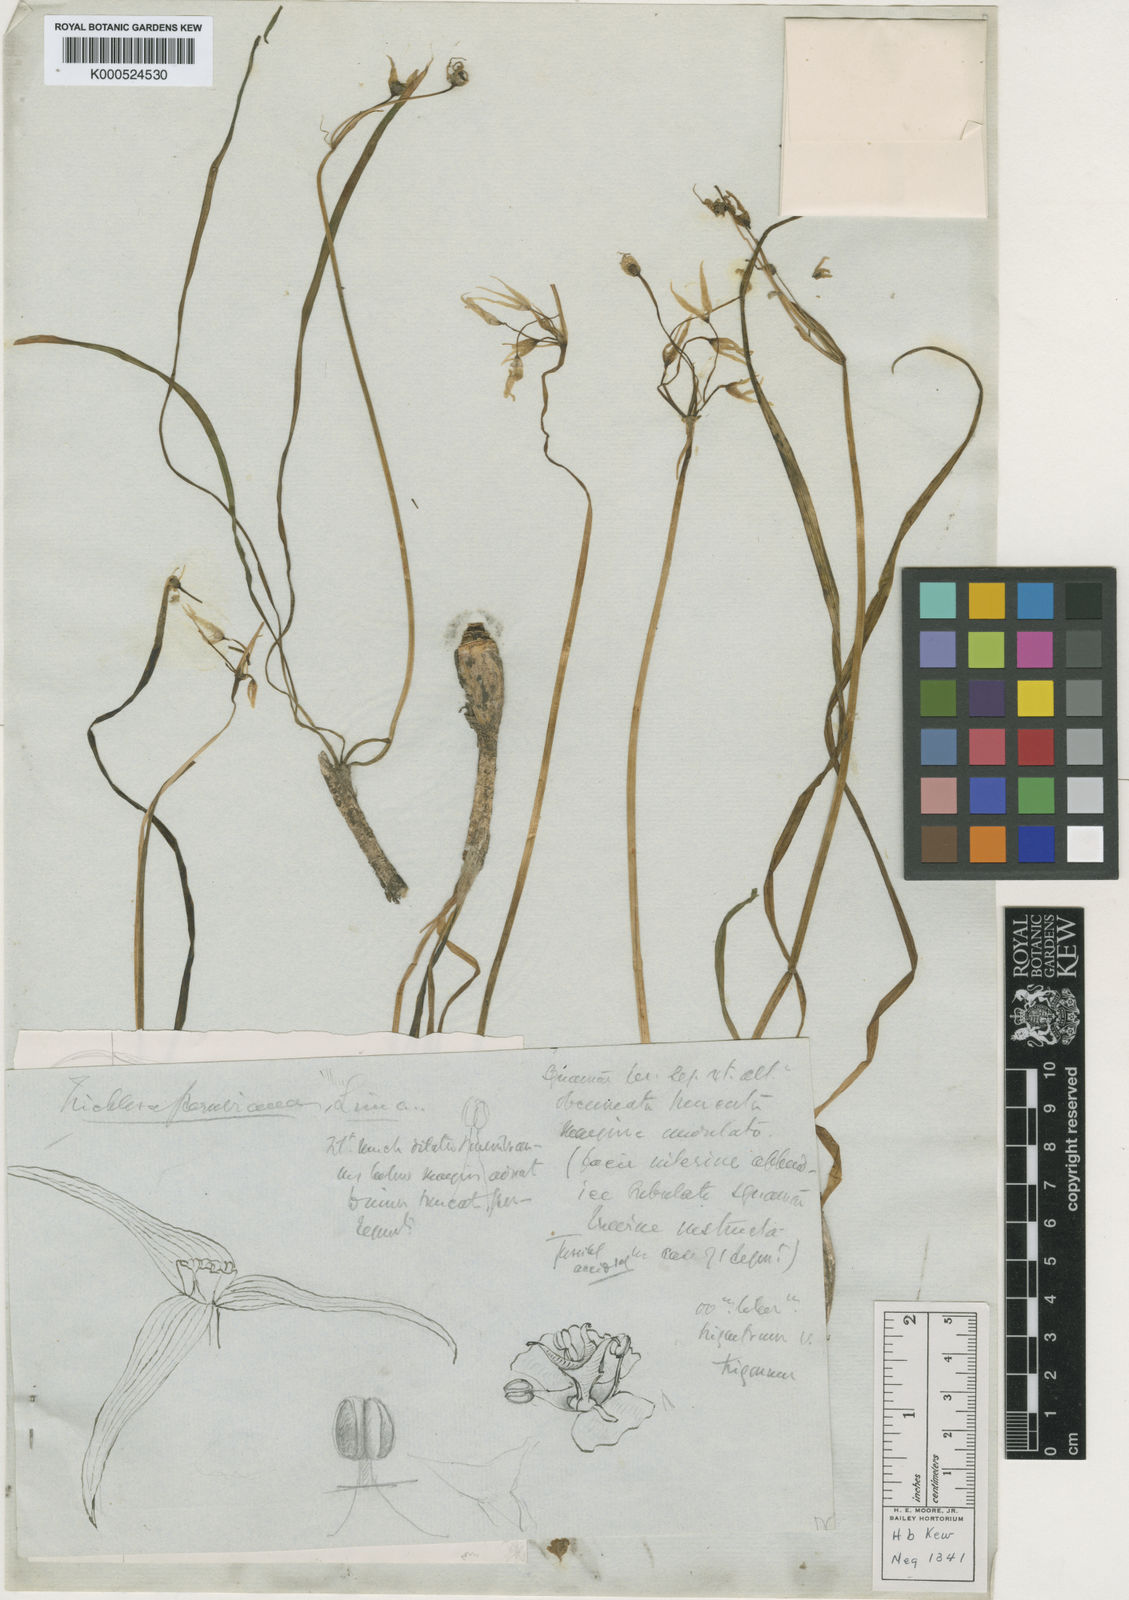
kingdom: Plantae
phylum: Tracheophyta
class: Liliopsida
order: Asparagales
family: Amaryllidaceae
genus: Trichlora
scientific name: Trichlora peruviana
